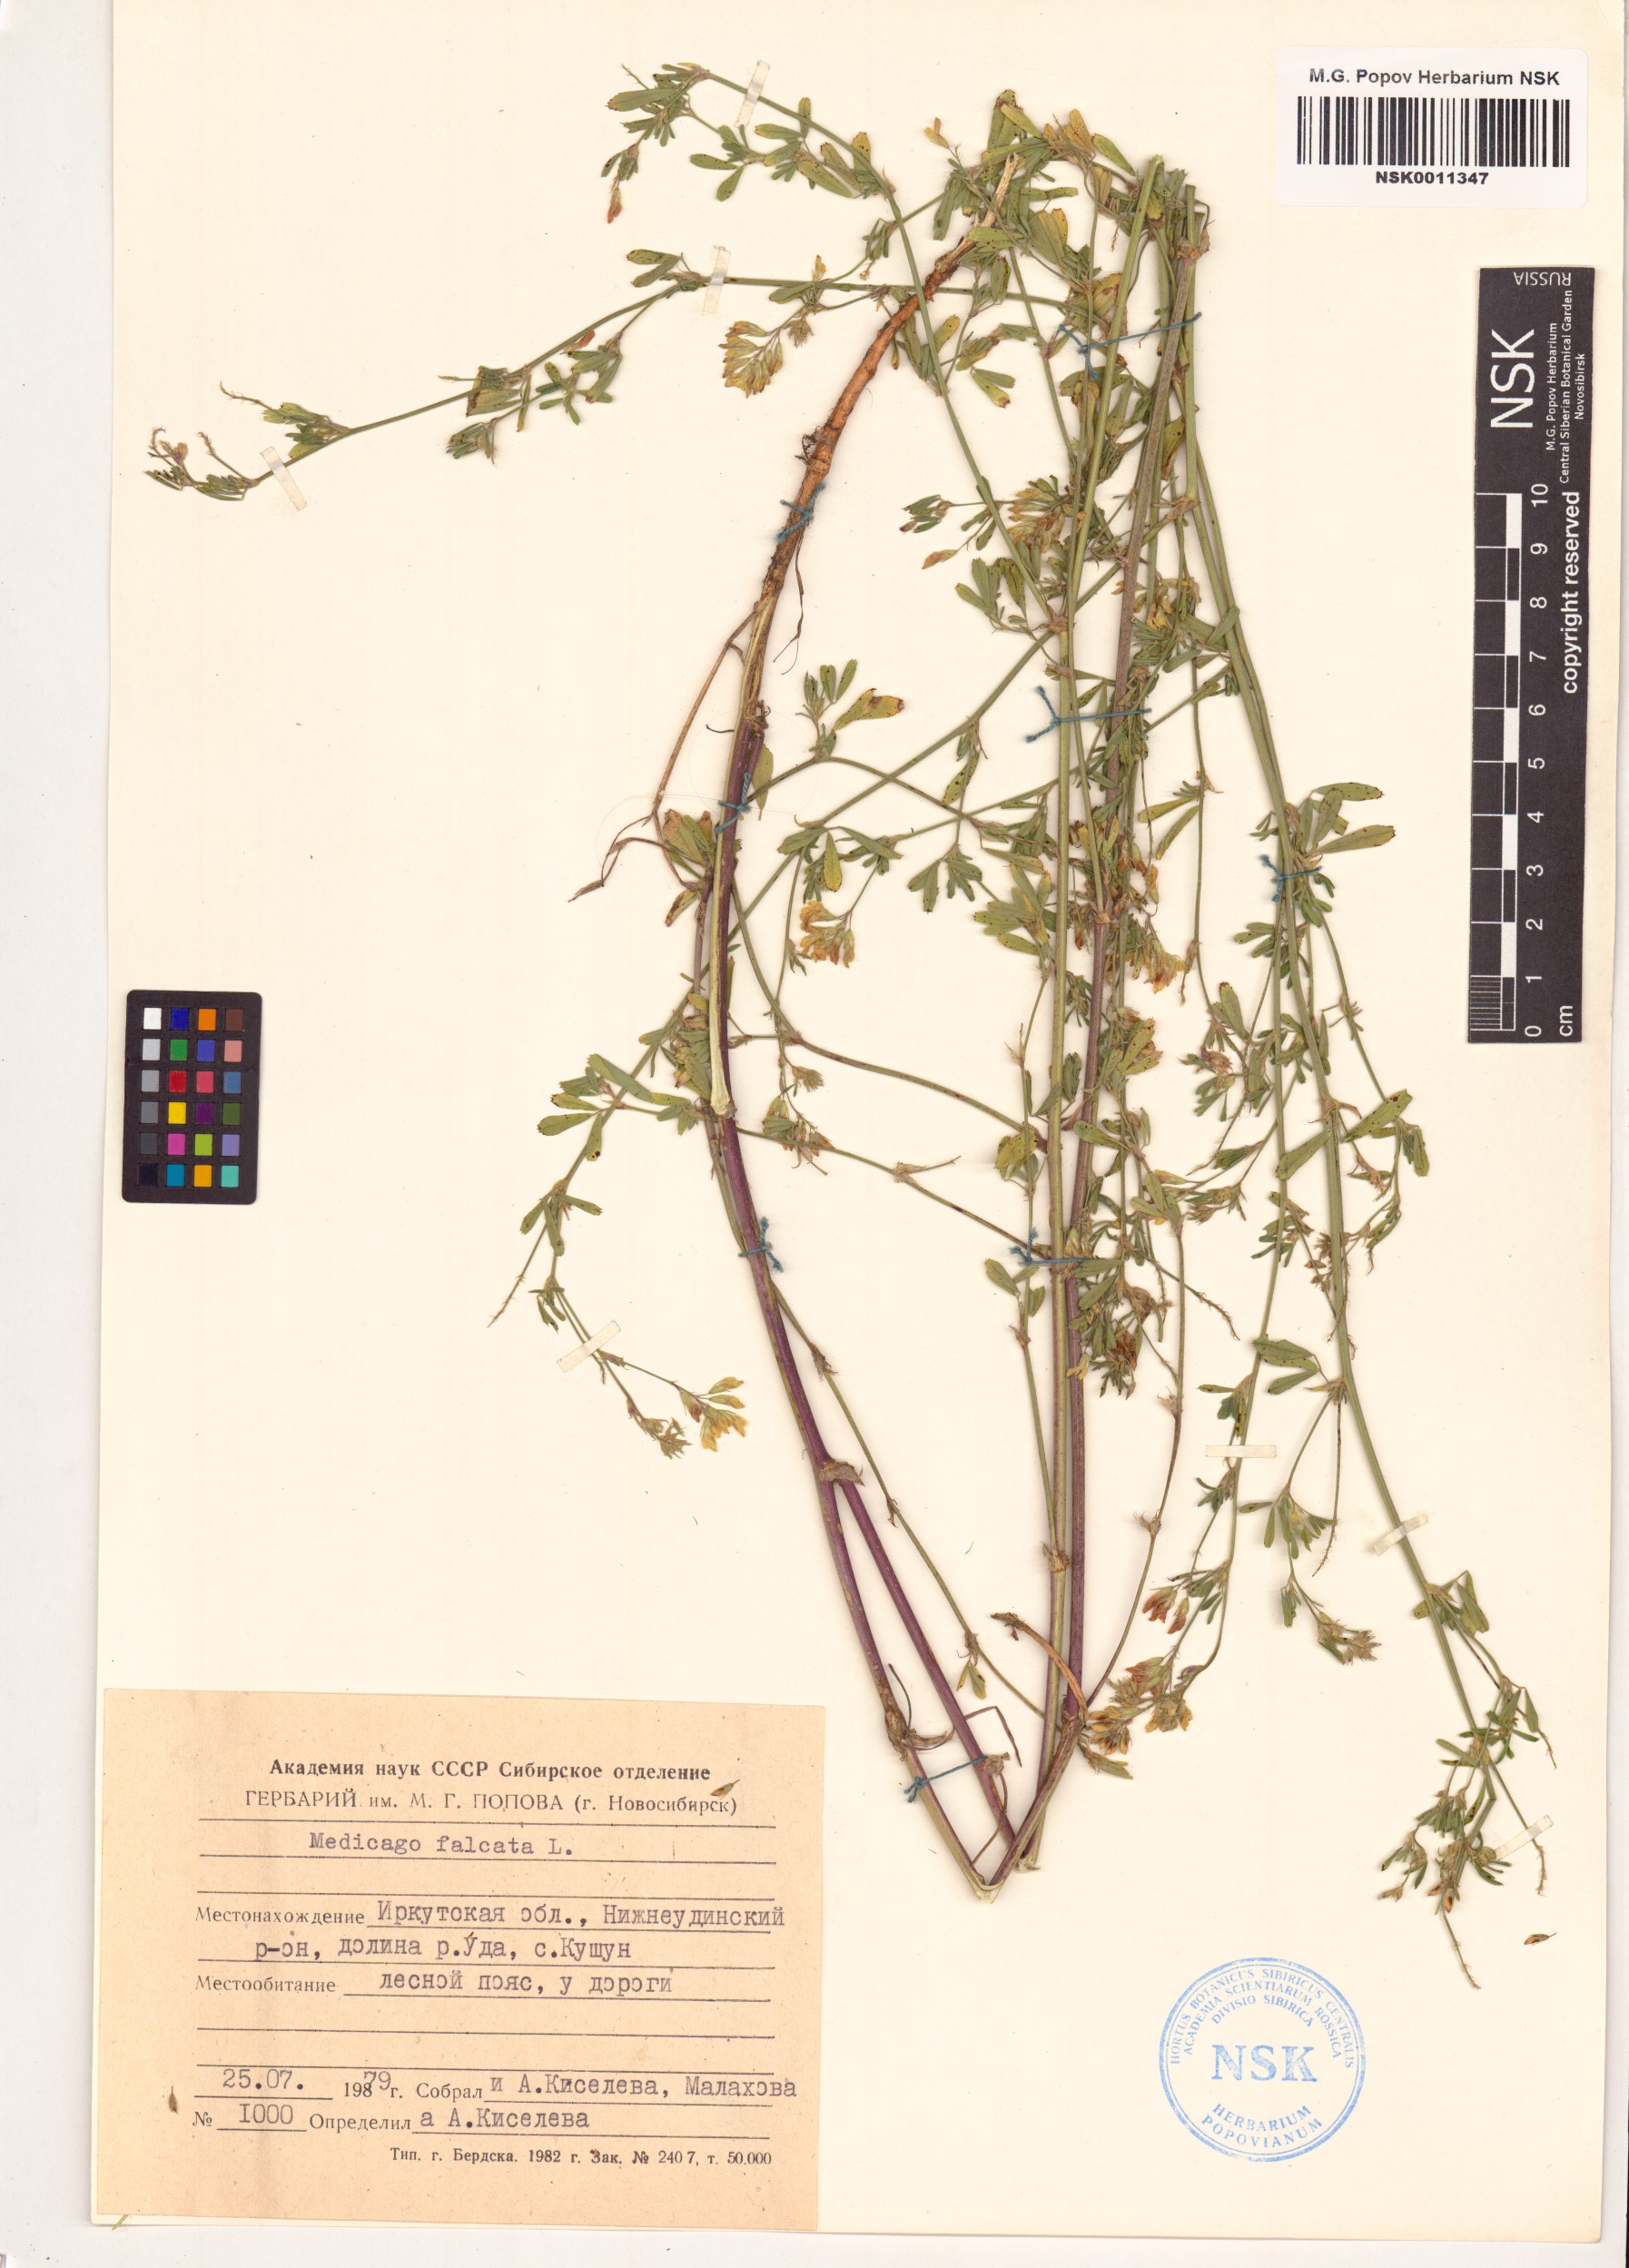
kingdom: Plantae
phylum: Tracheophyta
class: Magnoliopsida
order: Fabales
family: Fabaceae
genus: Medicago
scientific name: Medicago falcata
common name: Sickle medick
